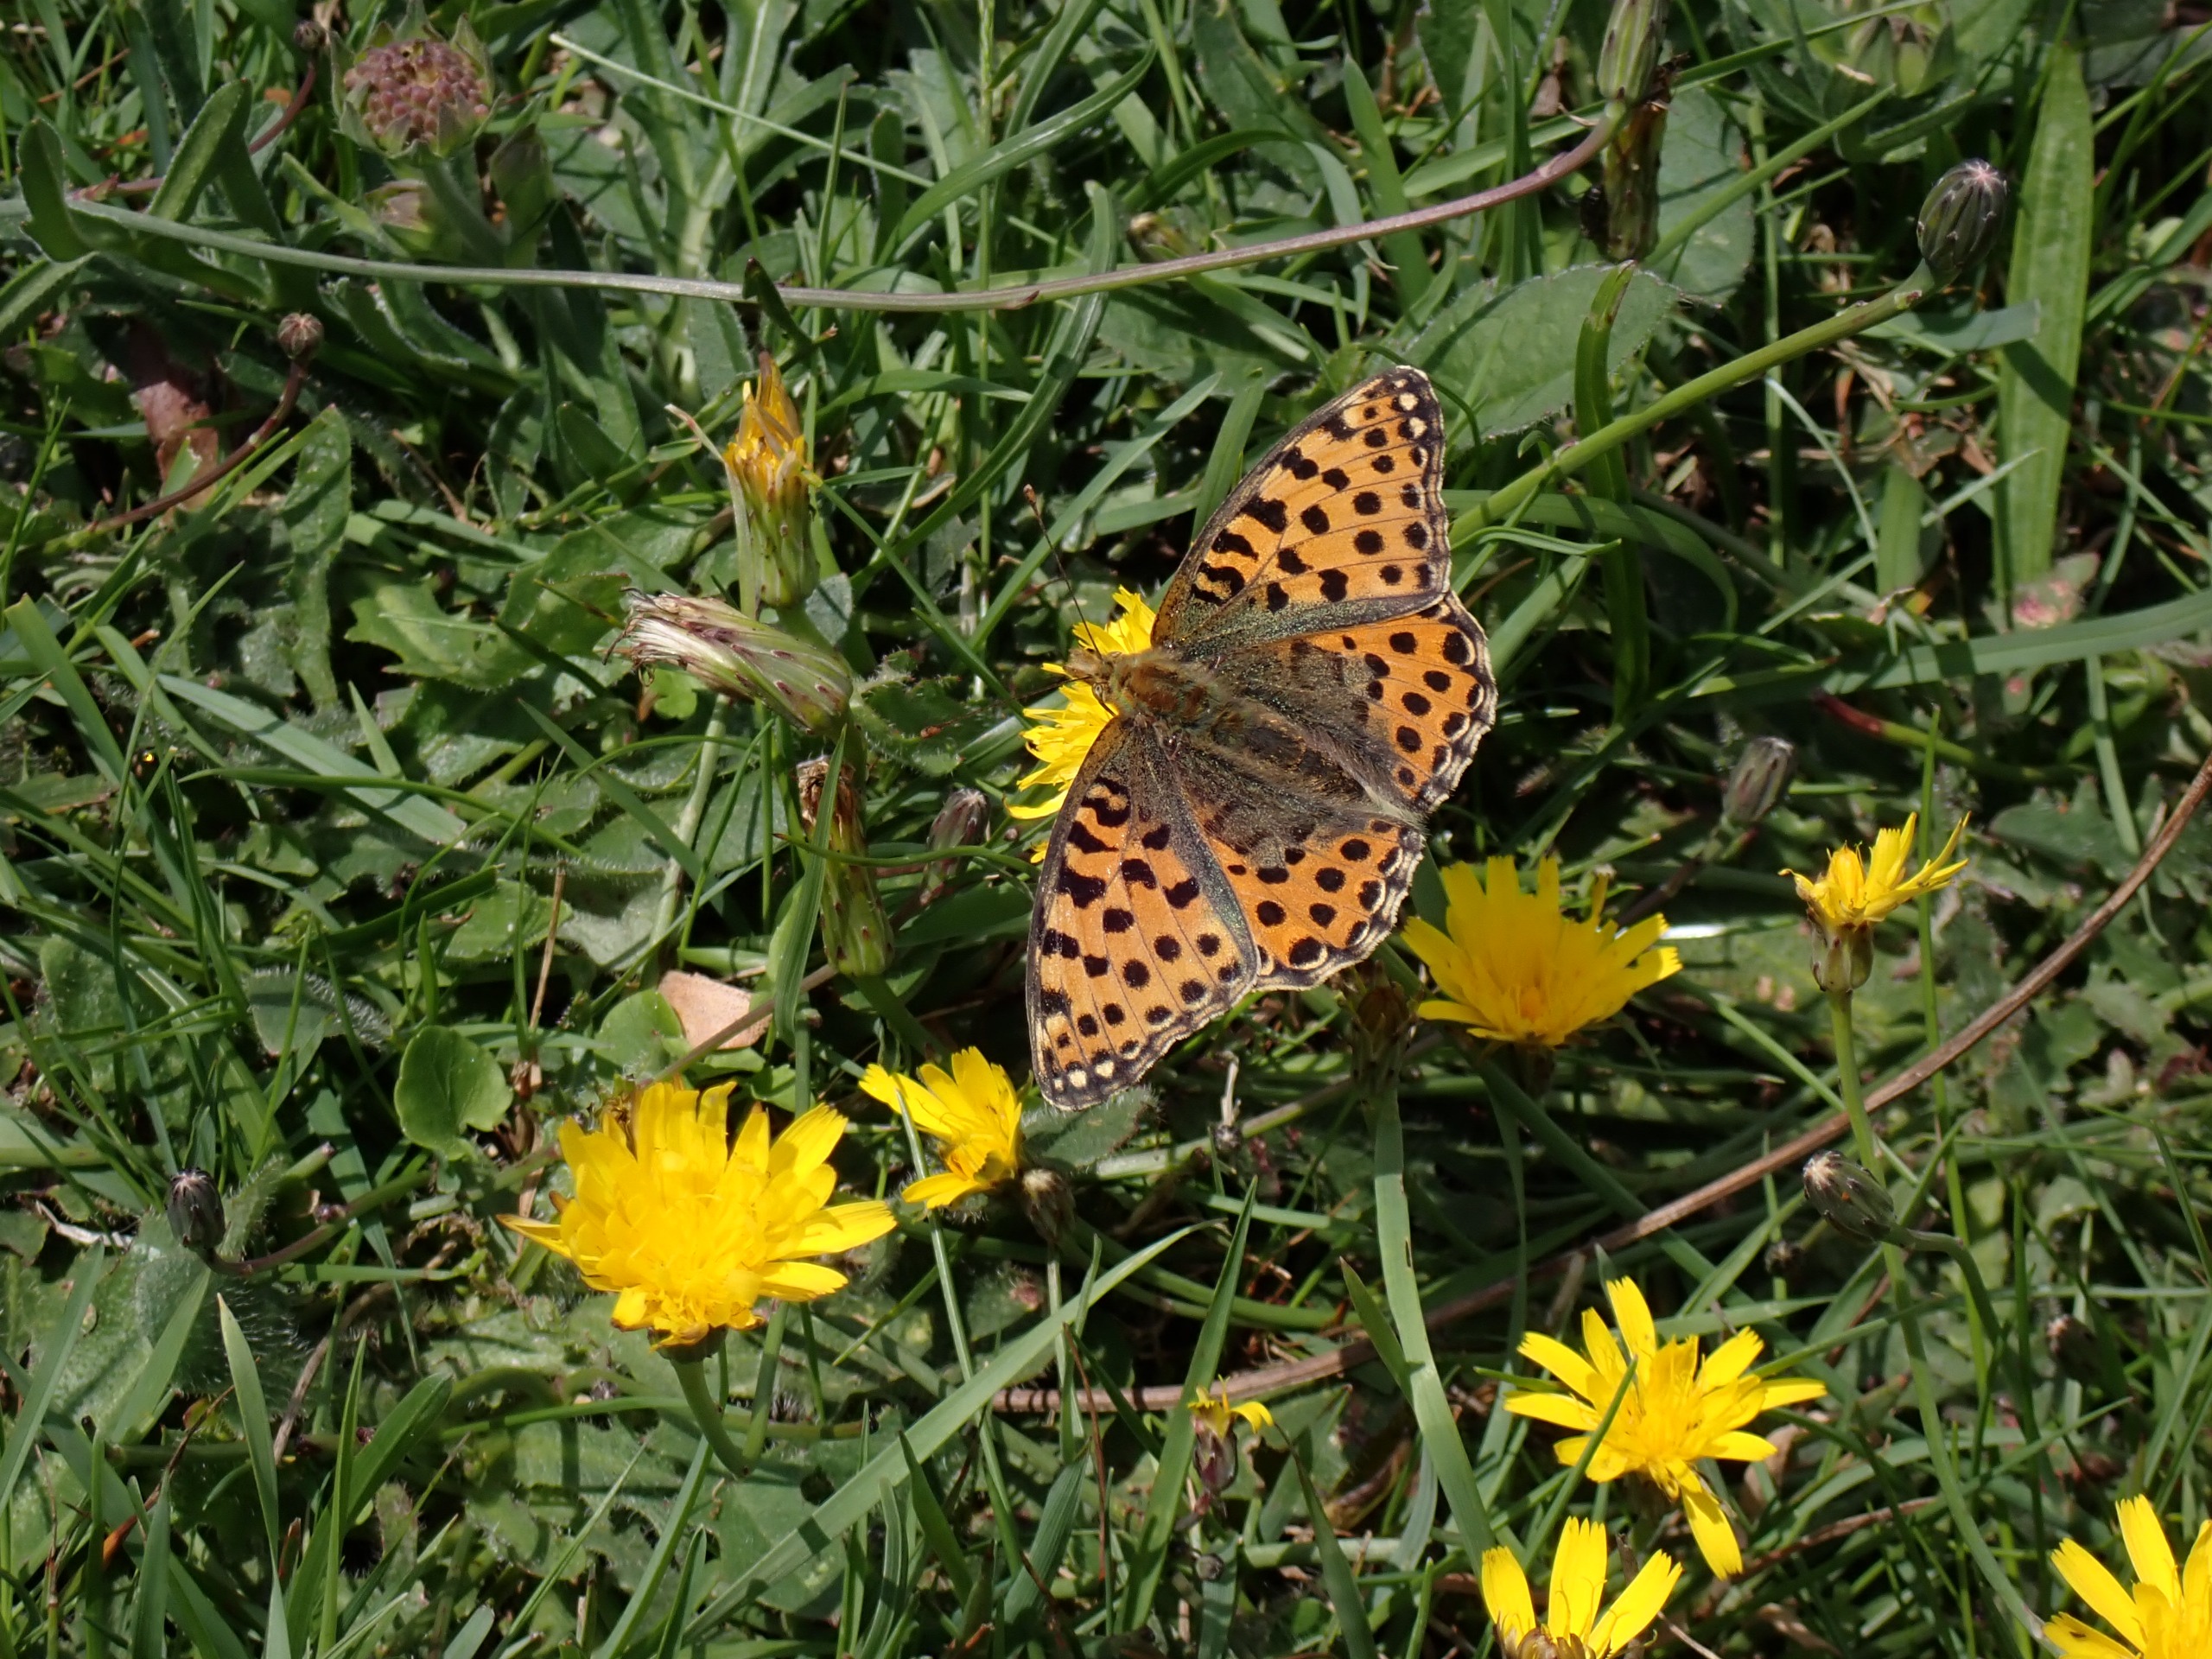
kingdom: Animalia
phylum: Arthropoda
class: Insecta
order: Lepidoptera
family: Nymphalidae
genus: Issoria
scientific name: Issoria lathonia
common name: Storplettet perlemorsommerfugl
